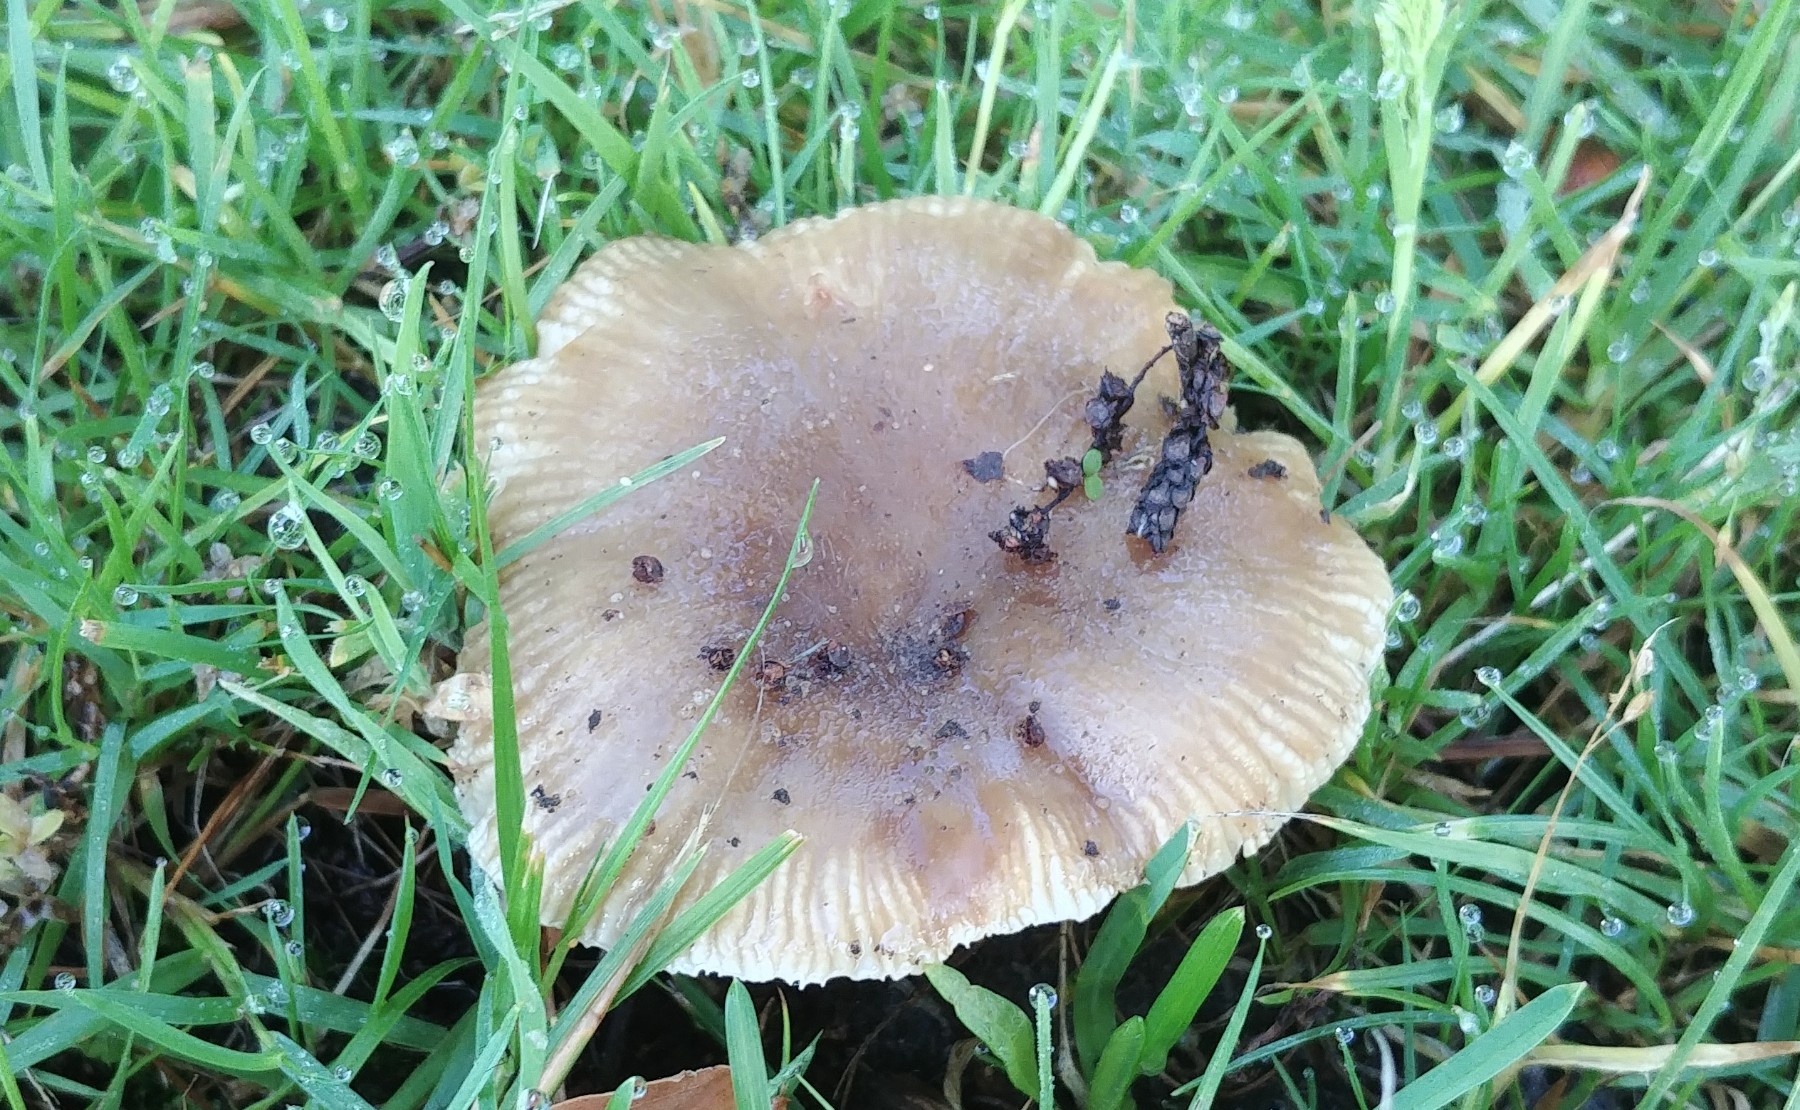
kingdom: Fungi
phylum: Basidiomycota
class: Agaricomycetes
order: Russulales
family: Russulaceae
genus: Russula
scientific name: Russula recondita
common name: mild kam-skørhat
